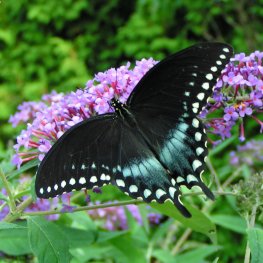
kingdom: Animalia
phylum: Arthropoda
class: Insecta
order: Lepidoptera
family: Papilionidae
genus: Pterourus
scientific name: Pterourus troilus
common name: Spicebush Swallowtail
